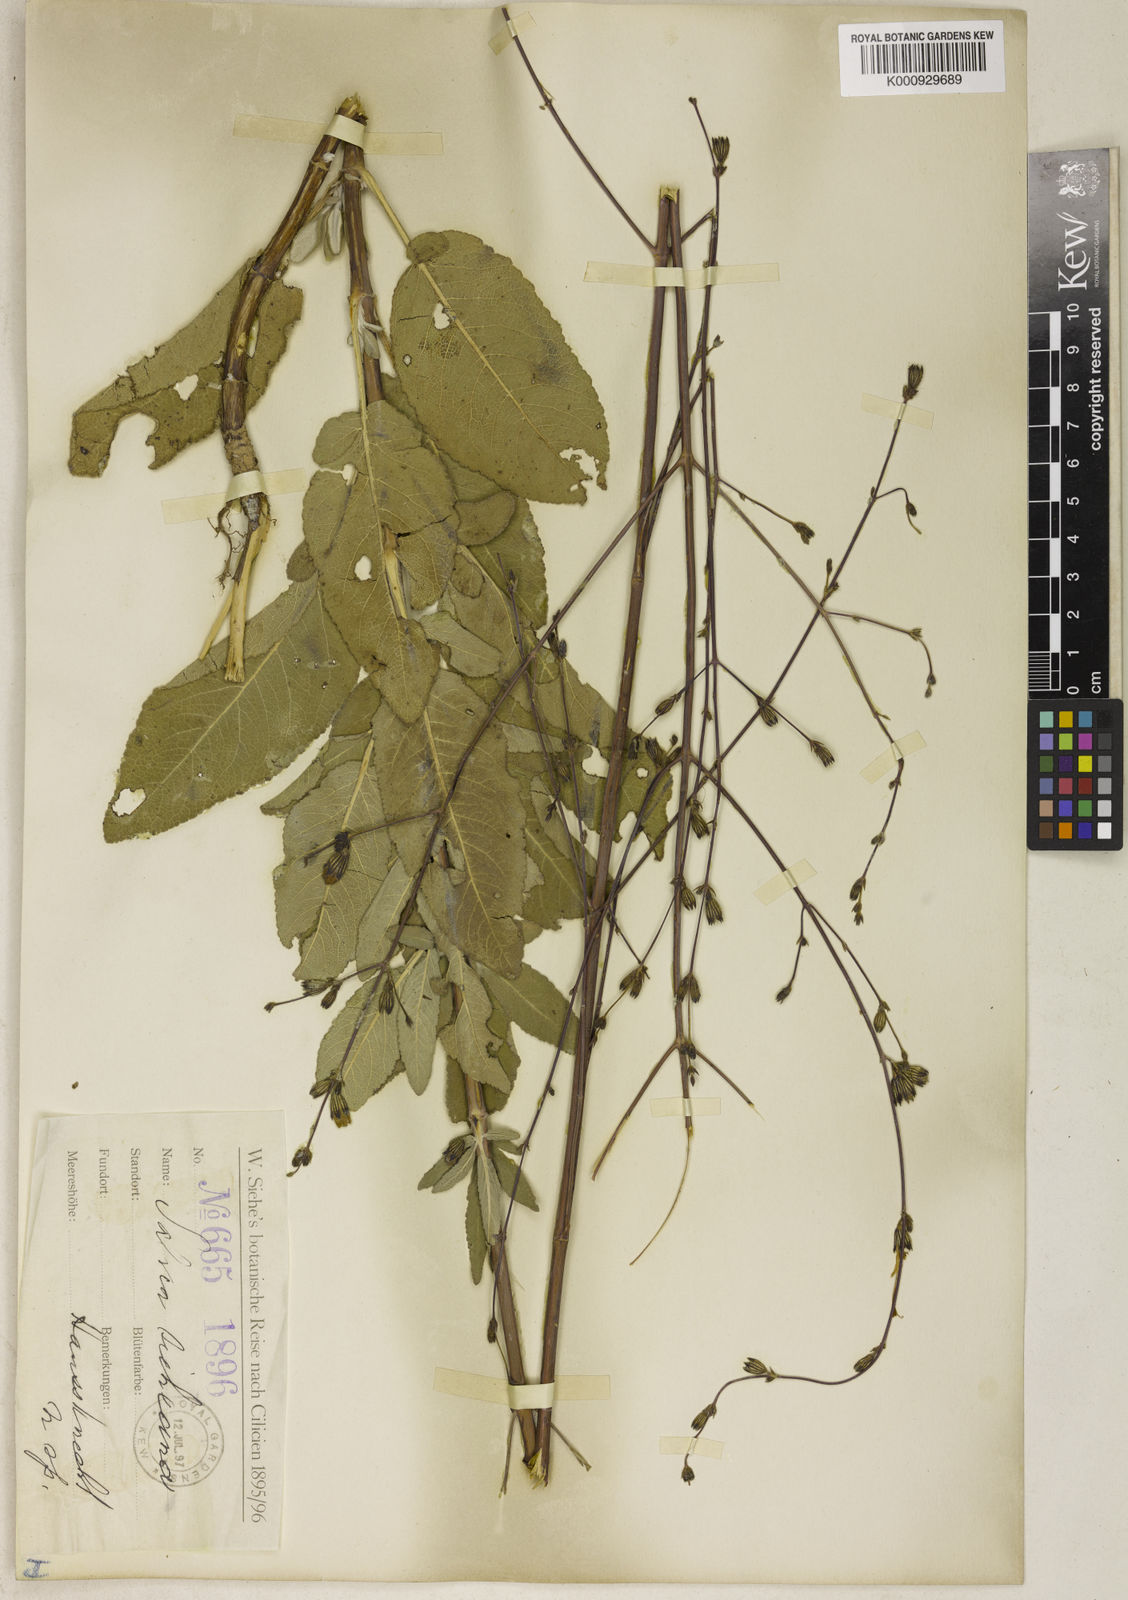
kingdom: Plantae
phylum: Tracheophyta
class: Magnoliopsida
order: Lamiales
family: Lamiaceae
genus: Salvia
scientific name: Salvia aucheri
